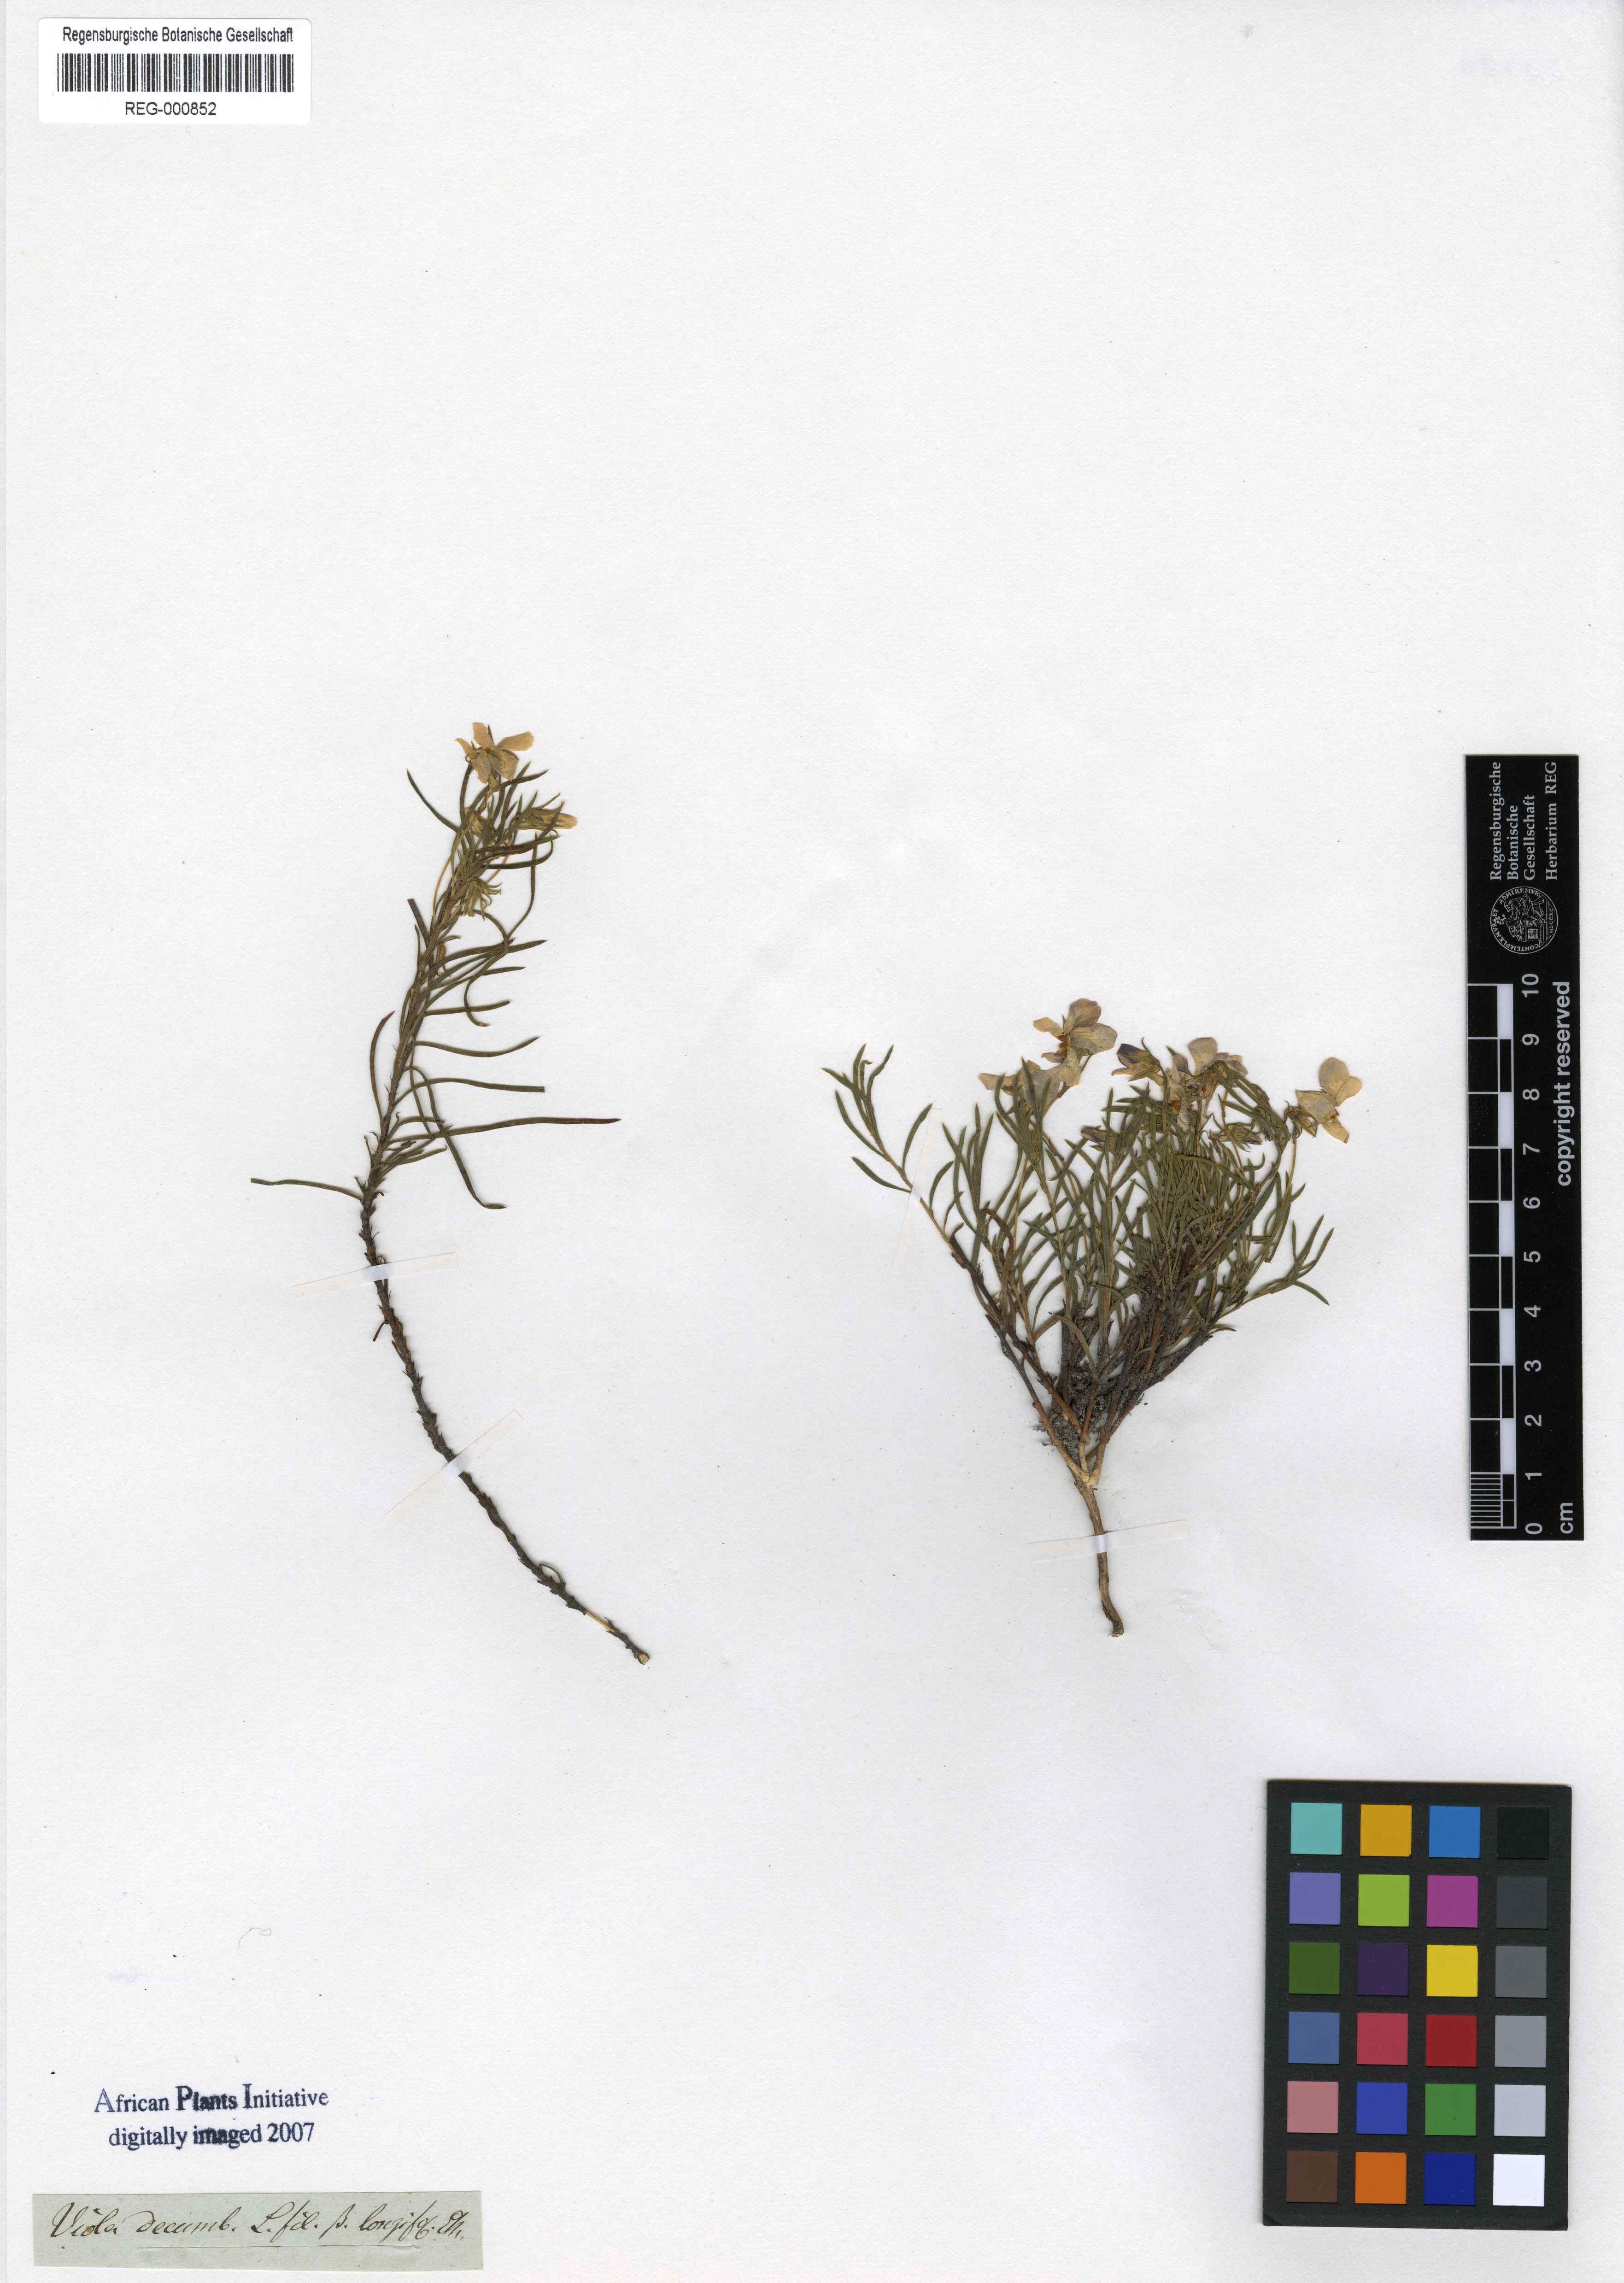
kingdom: Plantae
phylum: Tracheophyta
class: Magnoliopsida
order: Malpighiales
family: Violaceae
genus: Viola
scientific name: Viola decumbens
